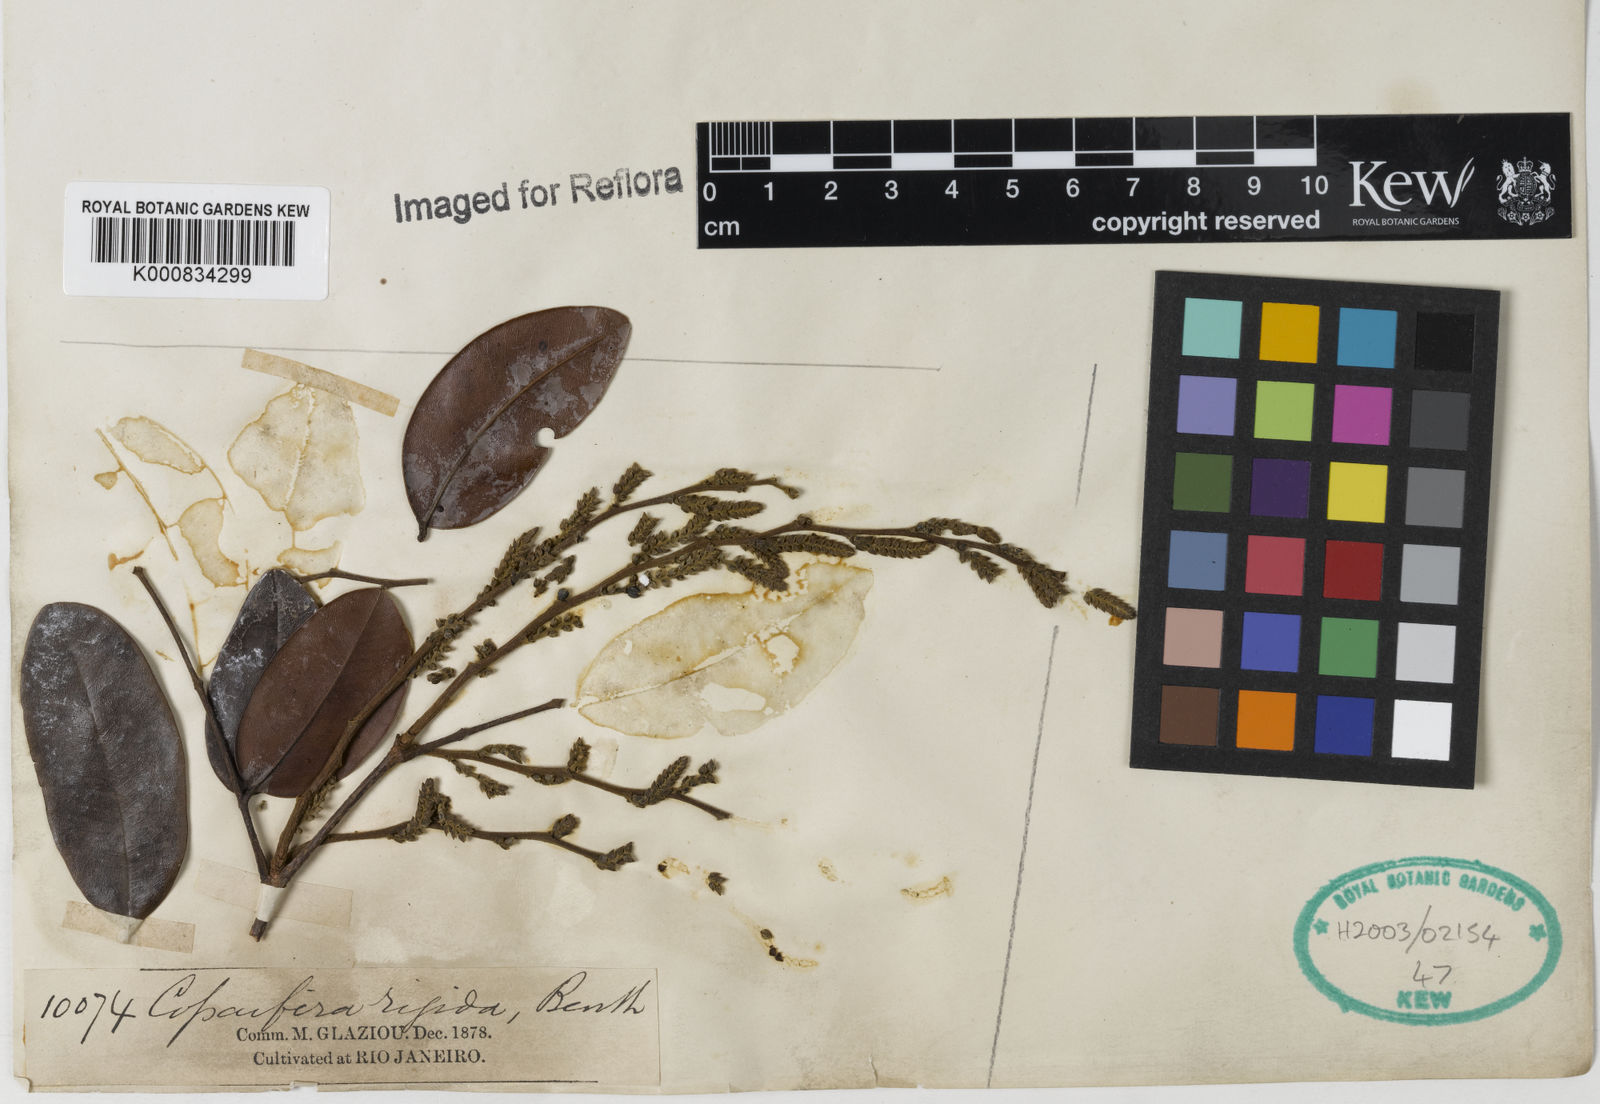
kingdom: Plantae
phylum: Tracheophyta
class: Magnoliopsida
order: Fabales
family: Fabaceae
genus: Copaifera
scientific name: Copaifera martii
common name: Copaiba
